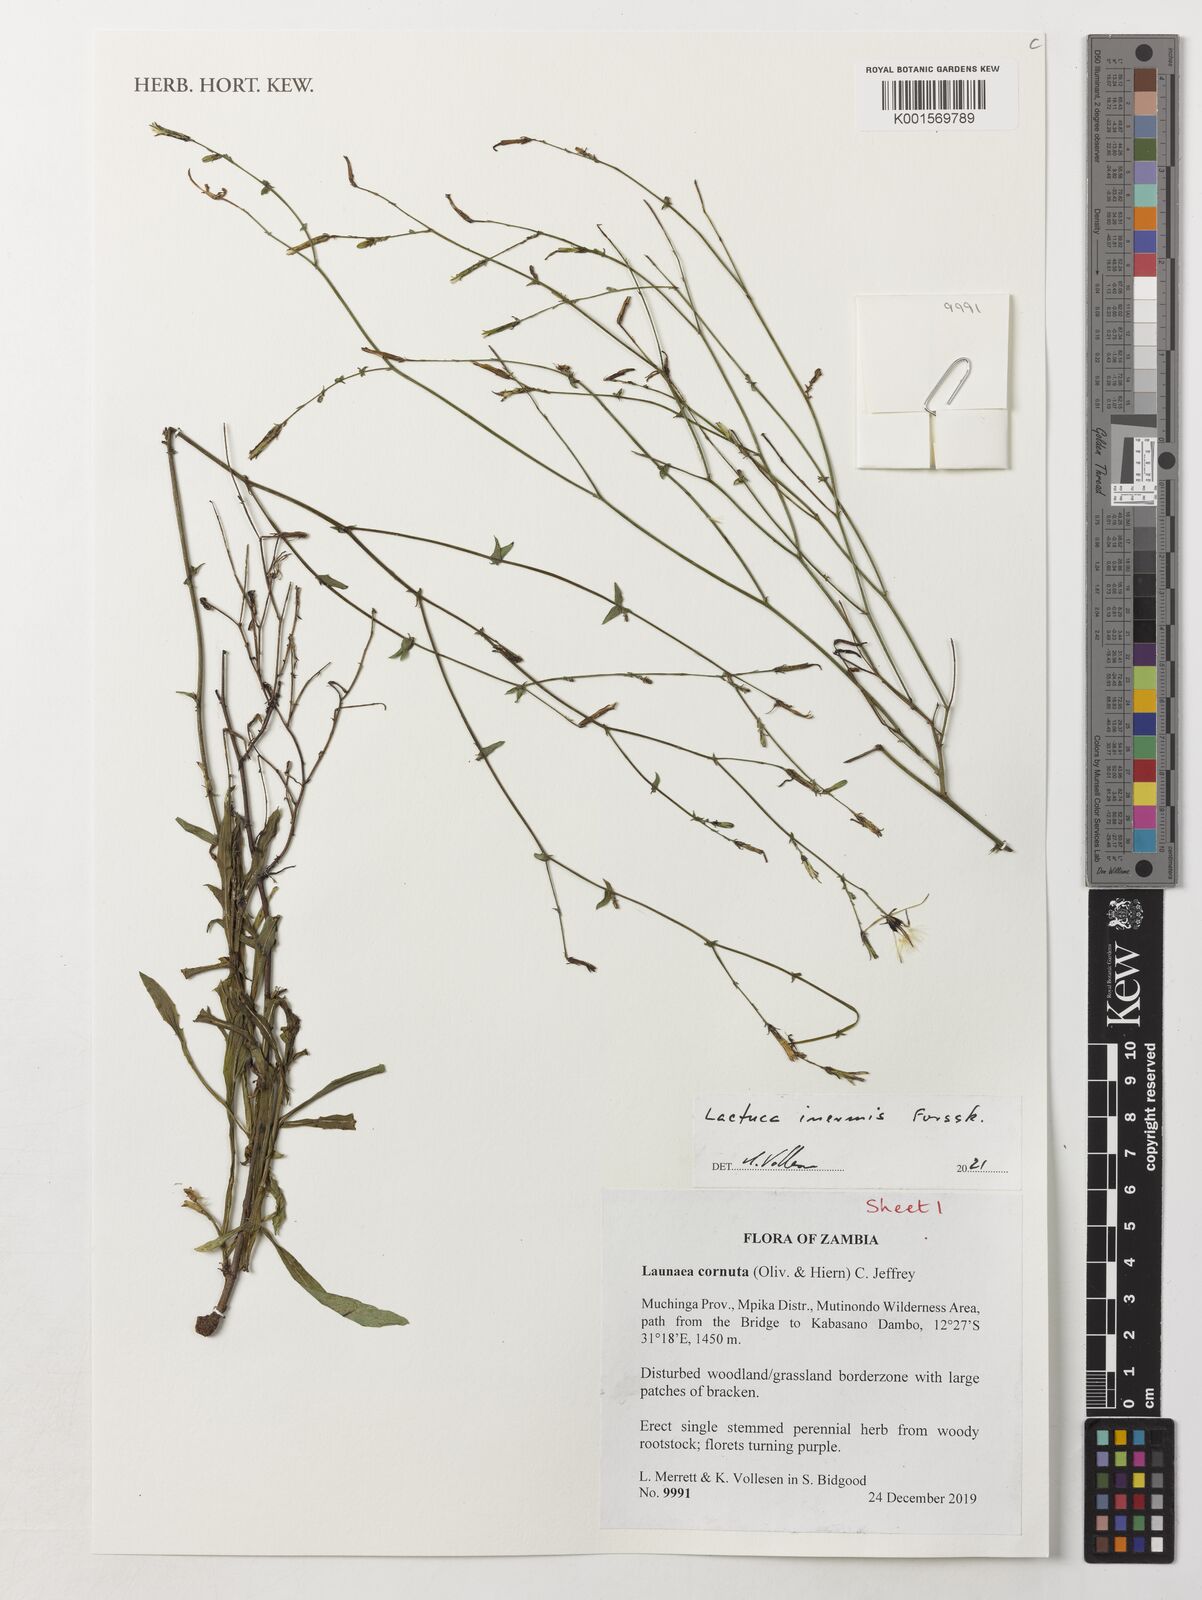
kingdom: Plantae
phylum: Tracheophyta
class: Magnoliopsida
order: Asterales
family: Asteraceae
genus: Lactuca
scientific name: Lactuca inermis
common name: Wild lettuce
